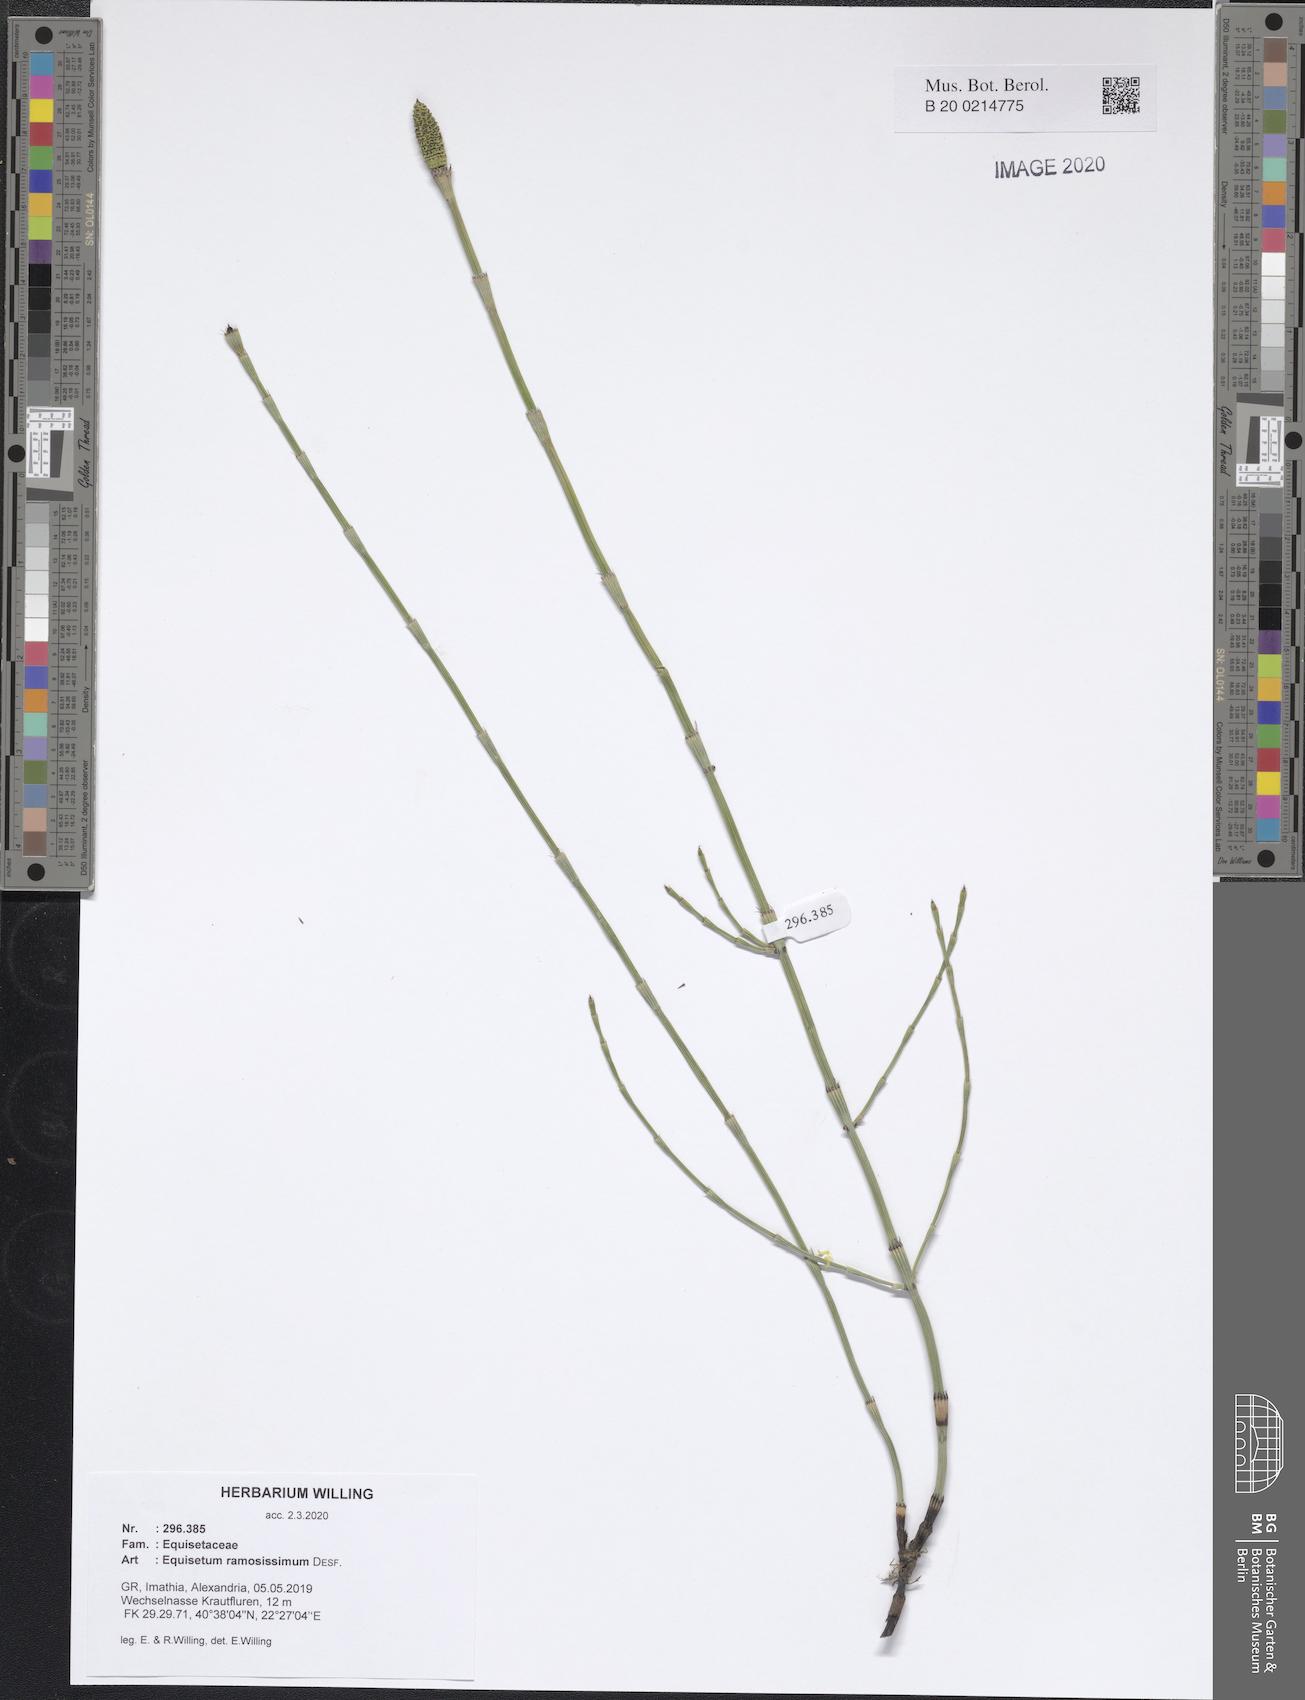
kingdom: Plantae
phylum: Tracheophyta
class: Polypodiopsida
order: Equisetales
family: Equisetaceae
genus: Equisetum
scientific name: Equisetum ramosissimum
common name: Branched horsetail
